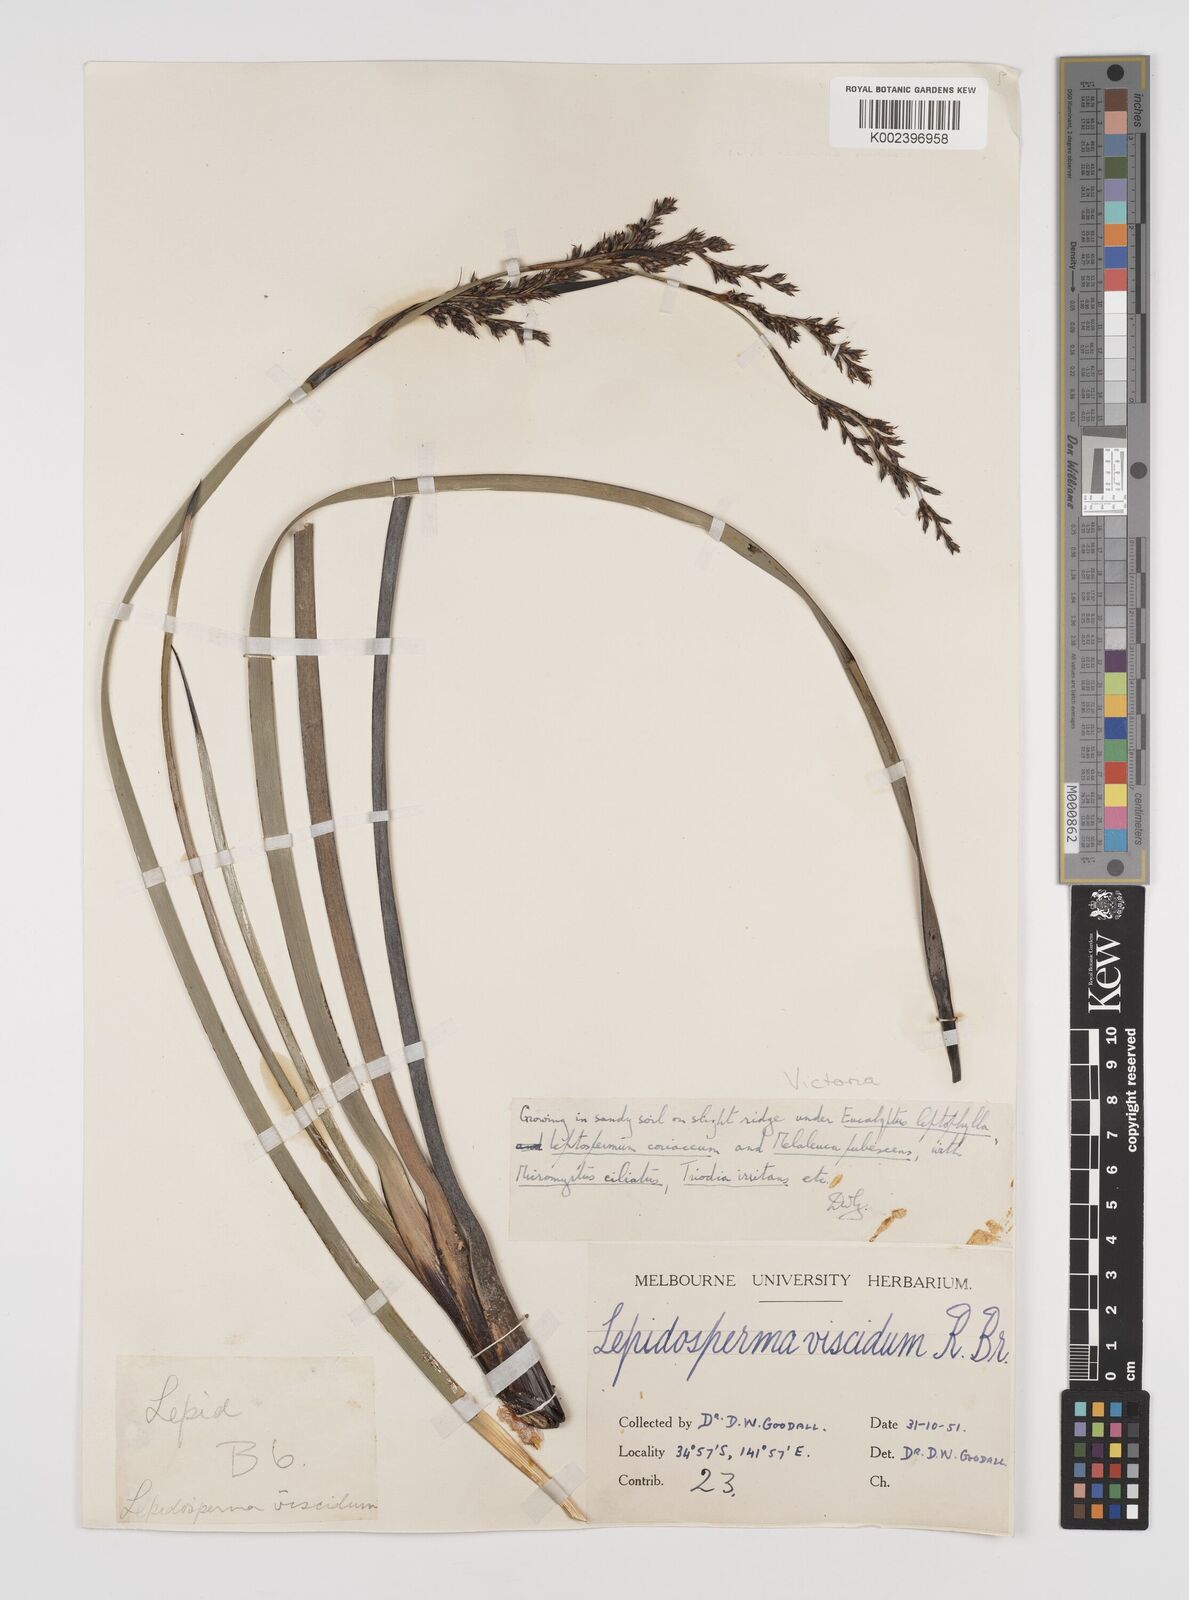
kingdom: Plantae
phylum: Tracheophyta
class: Liliopsida
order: Poales
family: Cyperaceae
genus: Lepidosperma
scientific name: Lepidosperma viscidum
